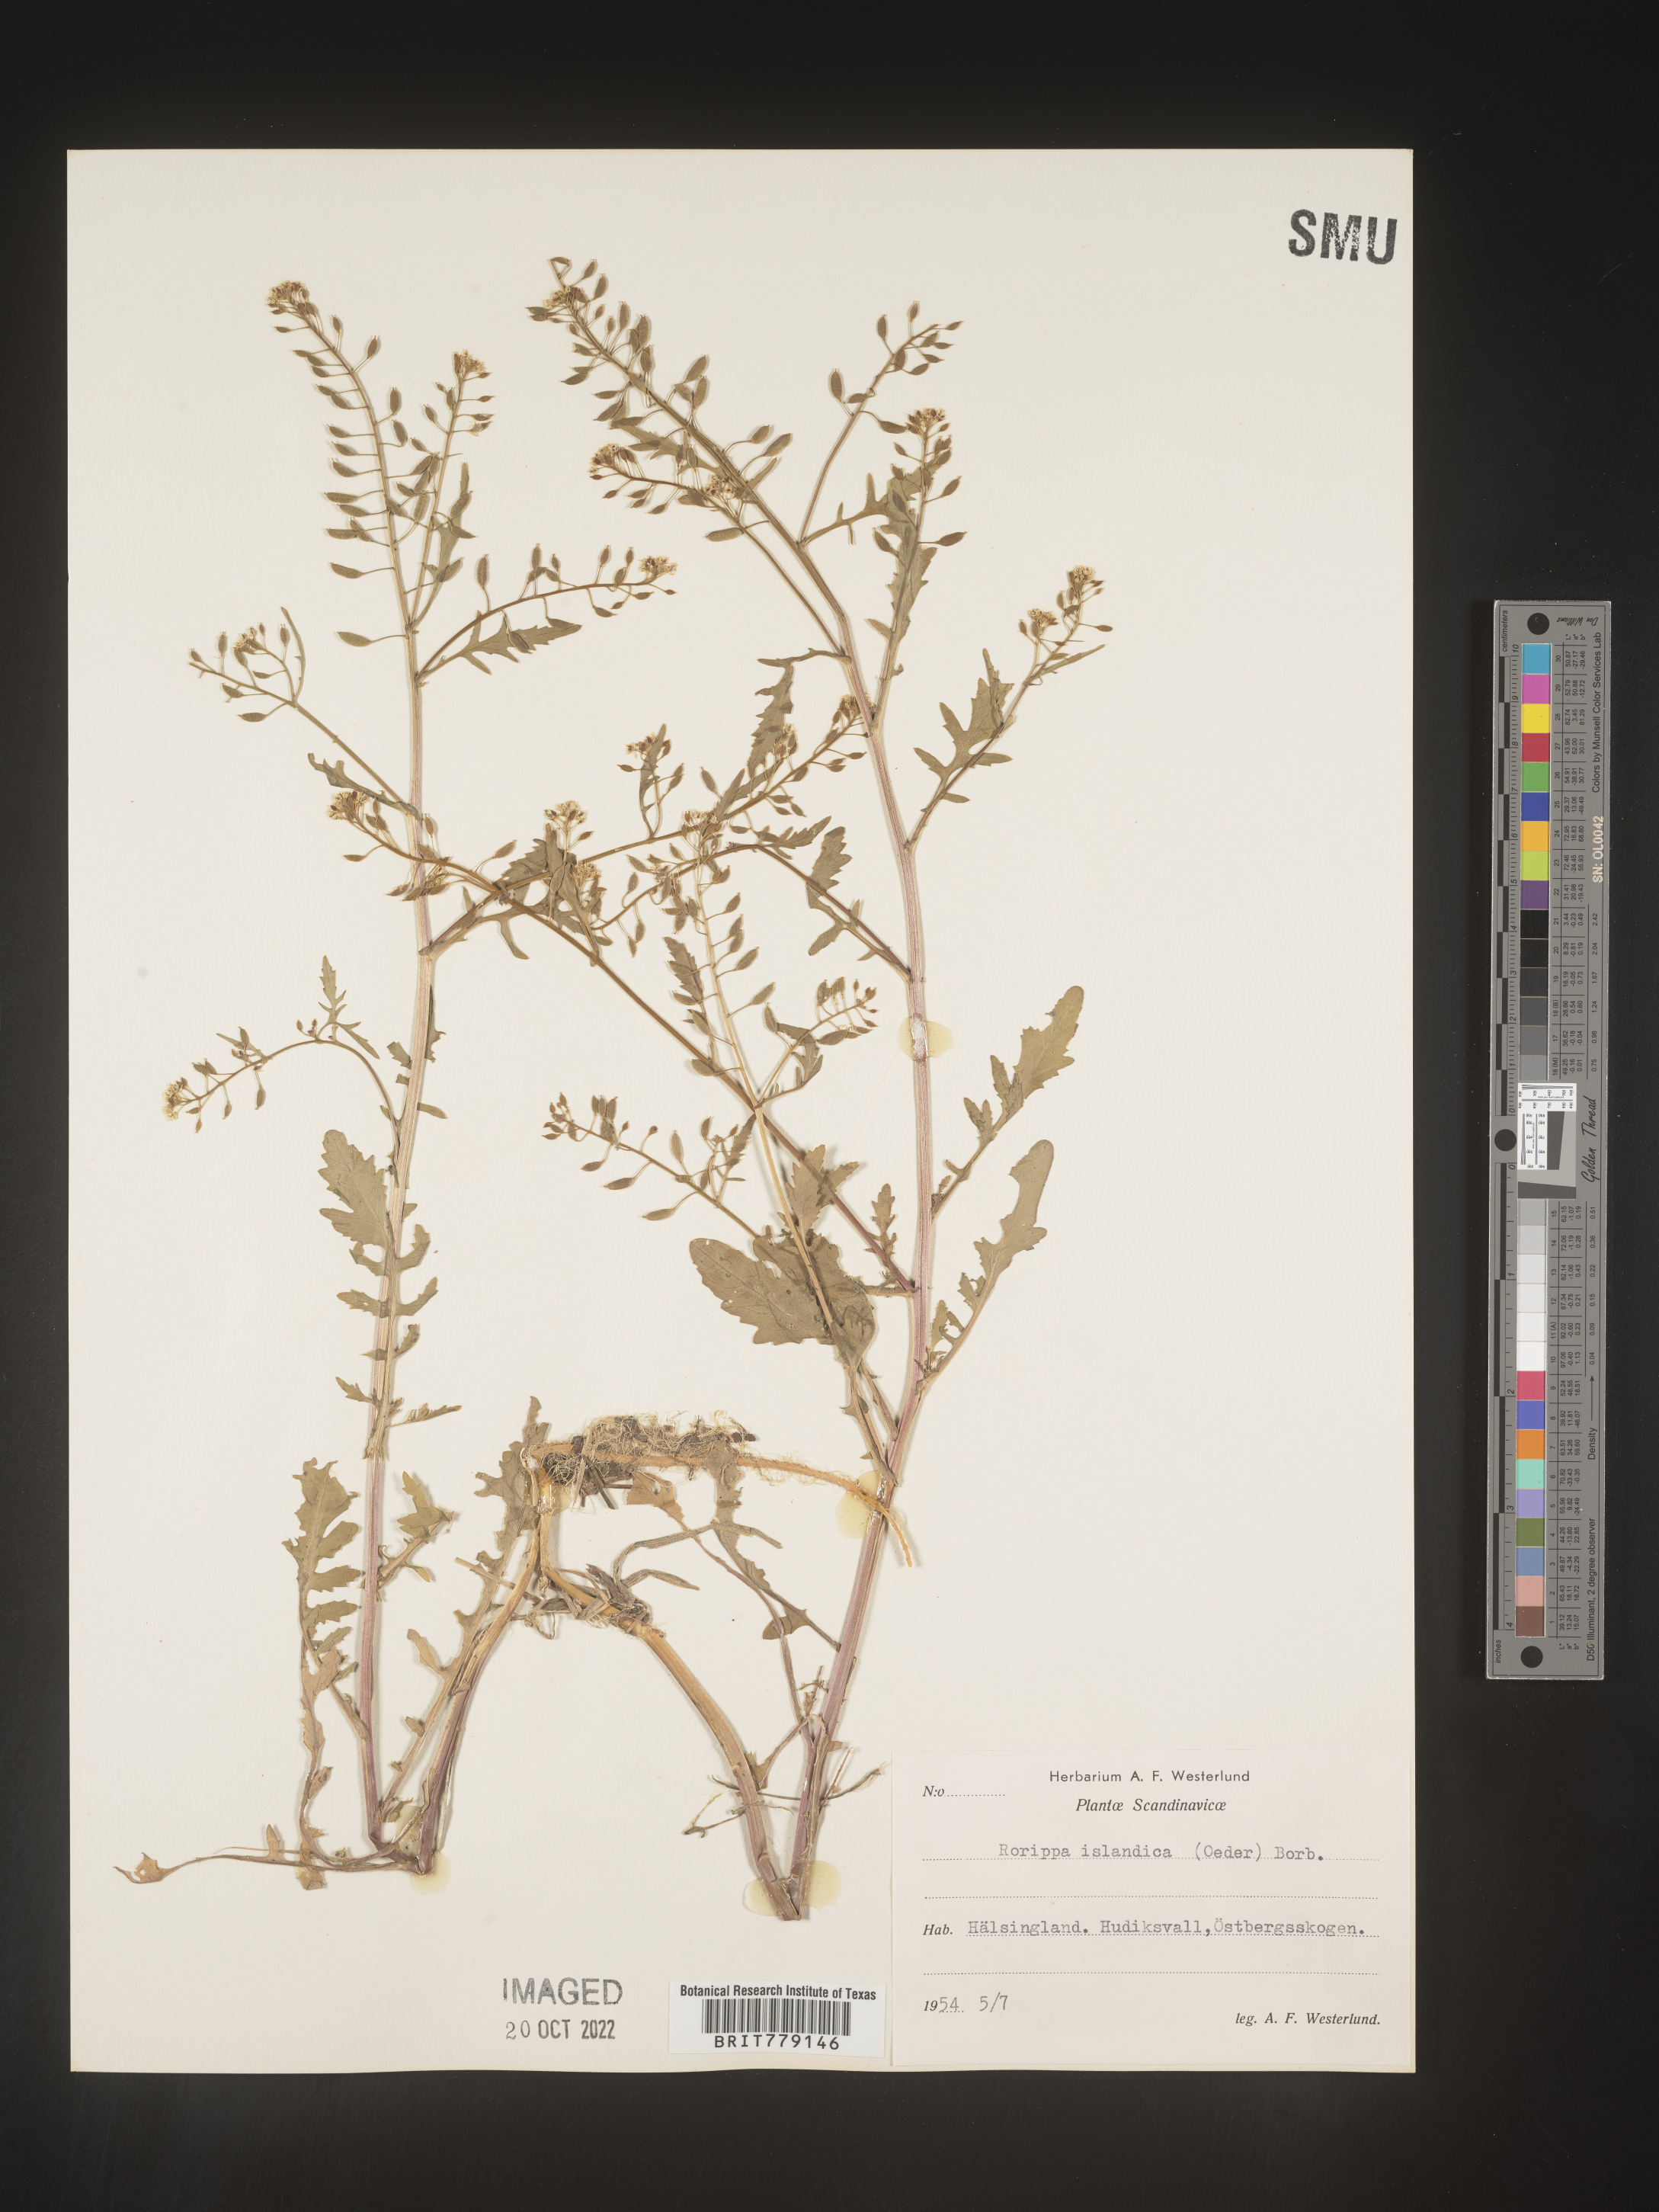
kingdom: Plantae
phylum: Tracheophyta
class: Magnoliopsida
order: Brassicales
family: Brassicaceae
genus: Rorippa
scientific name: Rorippa
